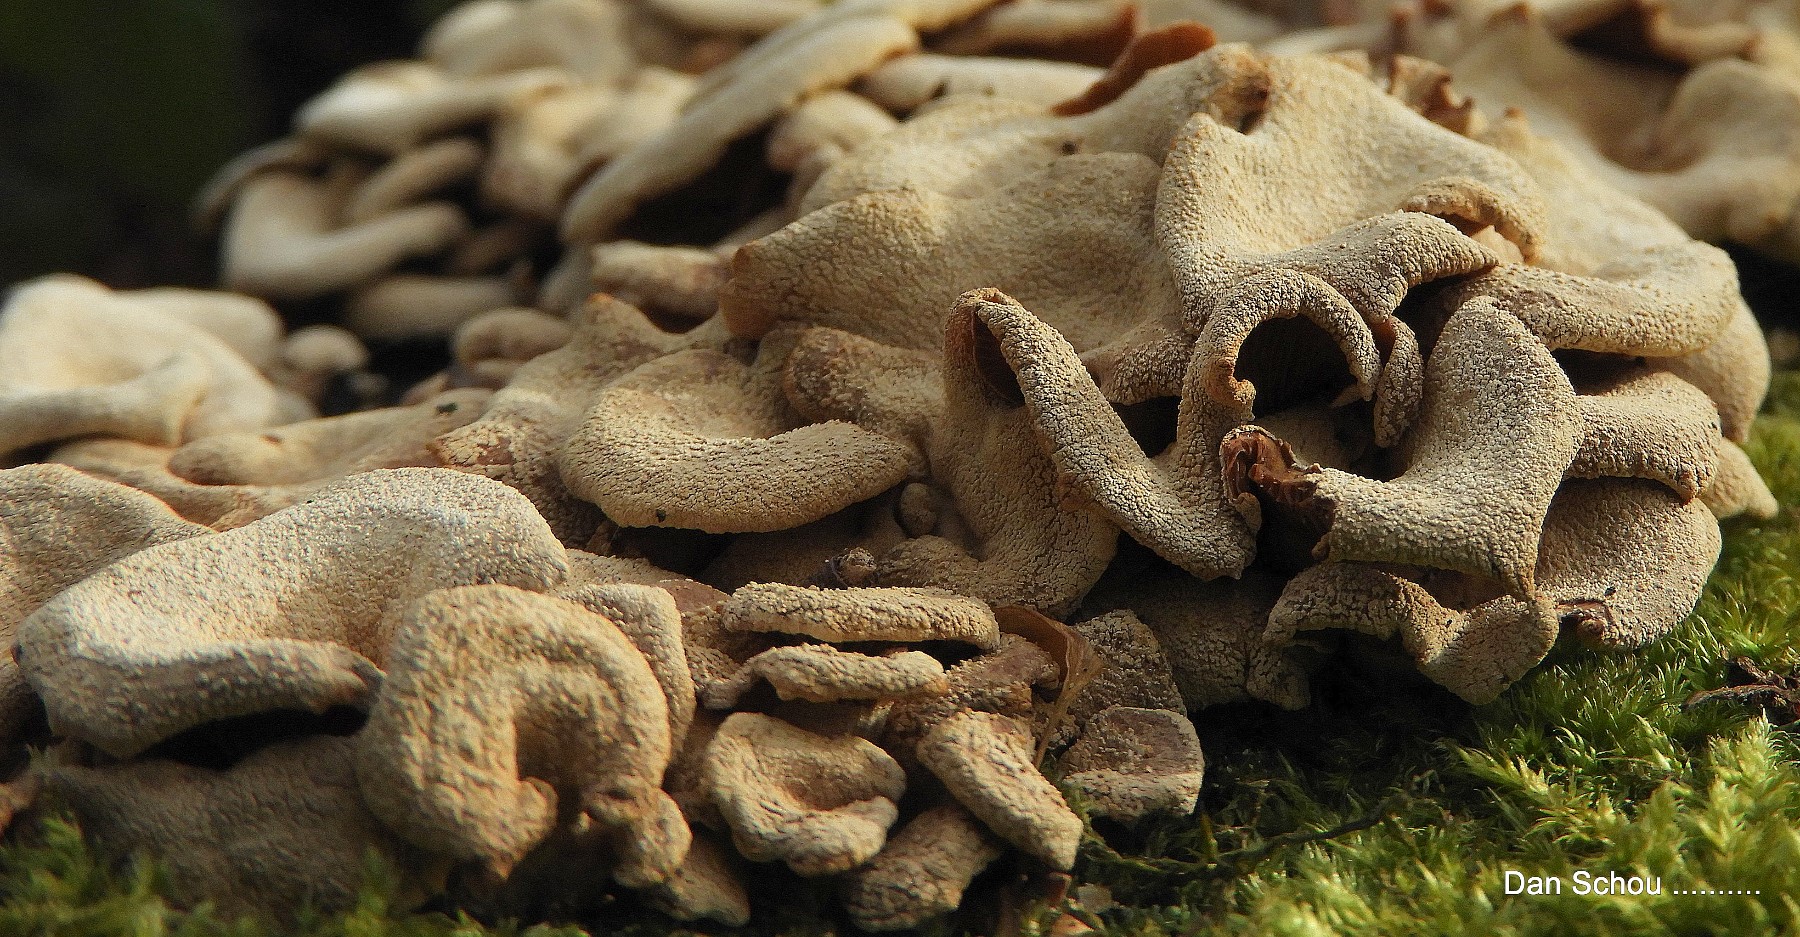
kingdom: Fungi
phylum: Basidiomycota
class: Agaricomycetes
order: Agaricales
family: Mycenaceae
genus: Panellus
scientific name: Panellus stipticus
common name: kliddet epaulethat
